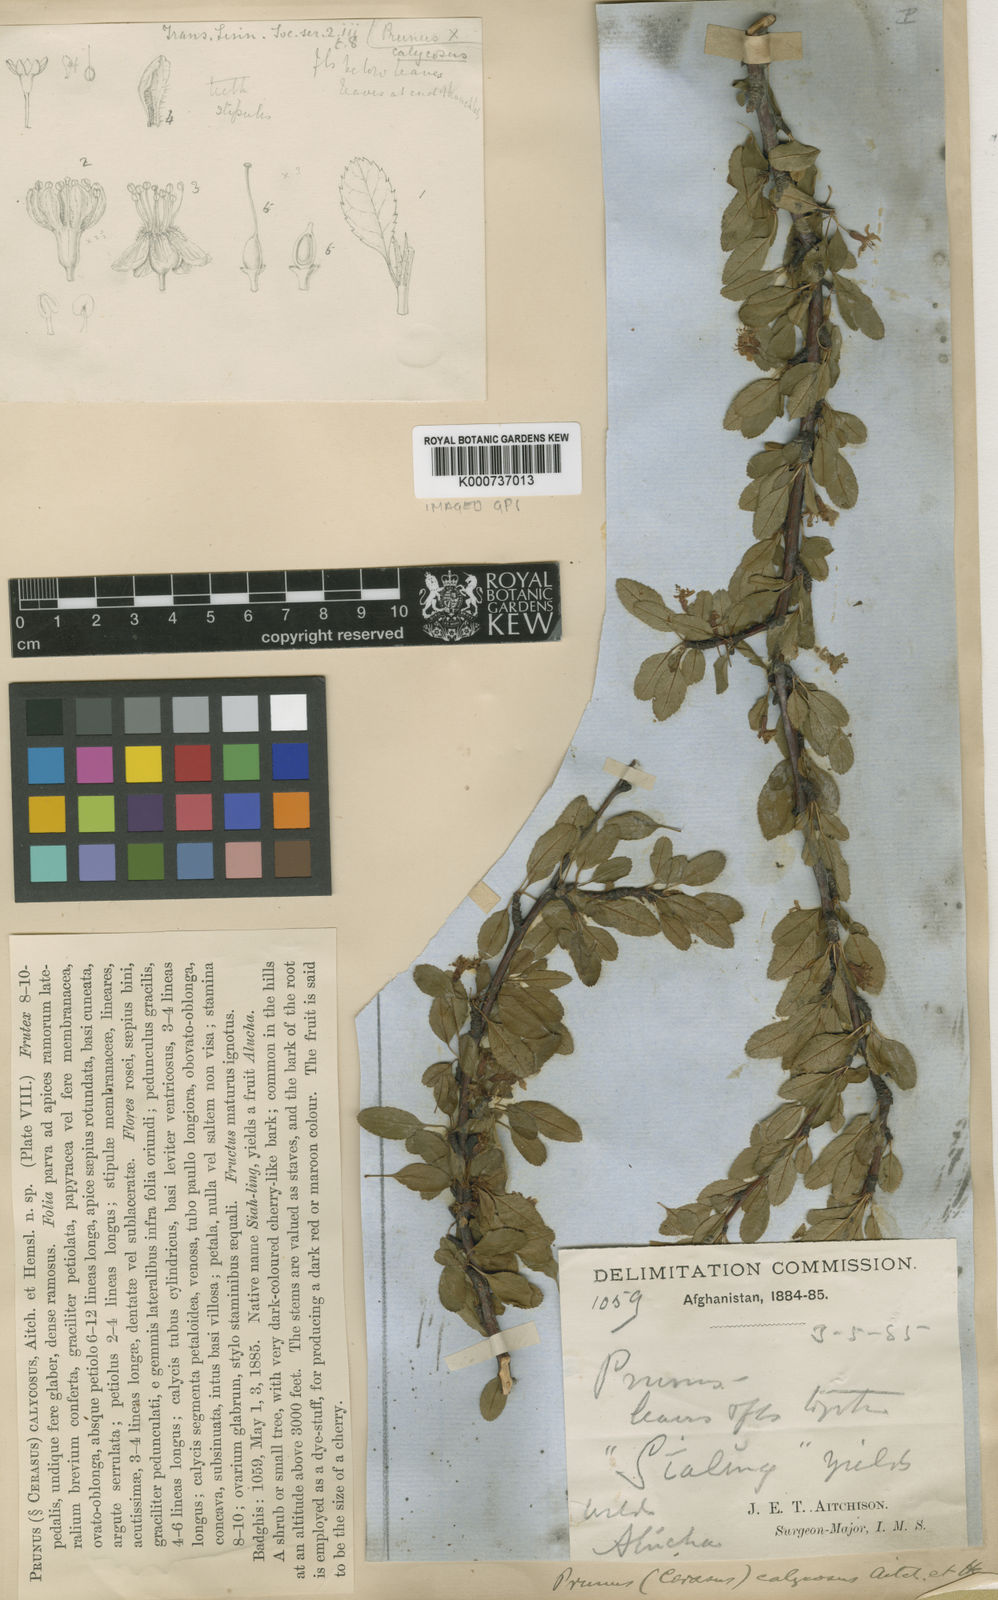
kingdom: Plantae
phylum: Tracheophyta
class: Magnoliopsida
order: Rosales
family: Rosaceae
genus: Prunus
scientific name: Prunus
